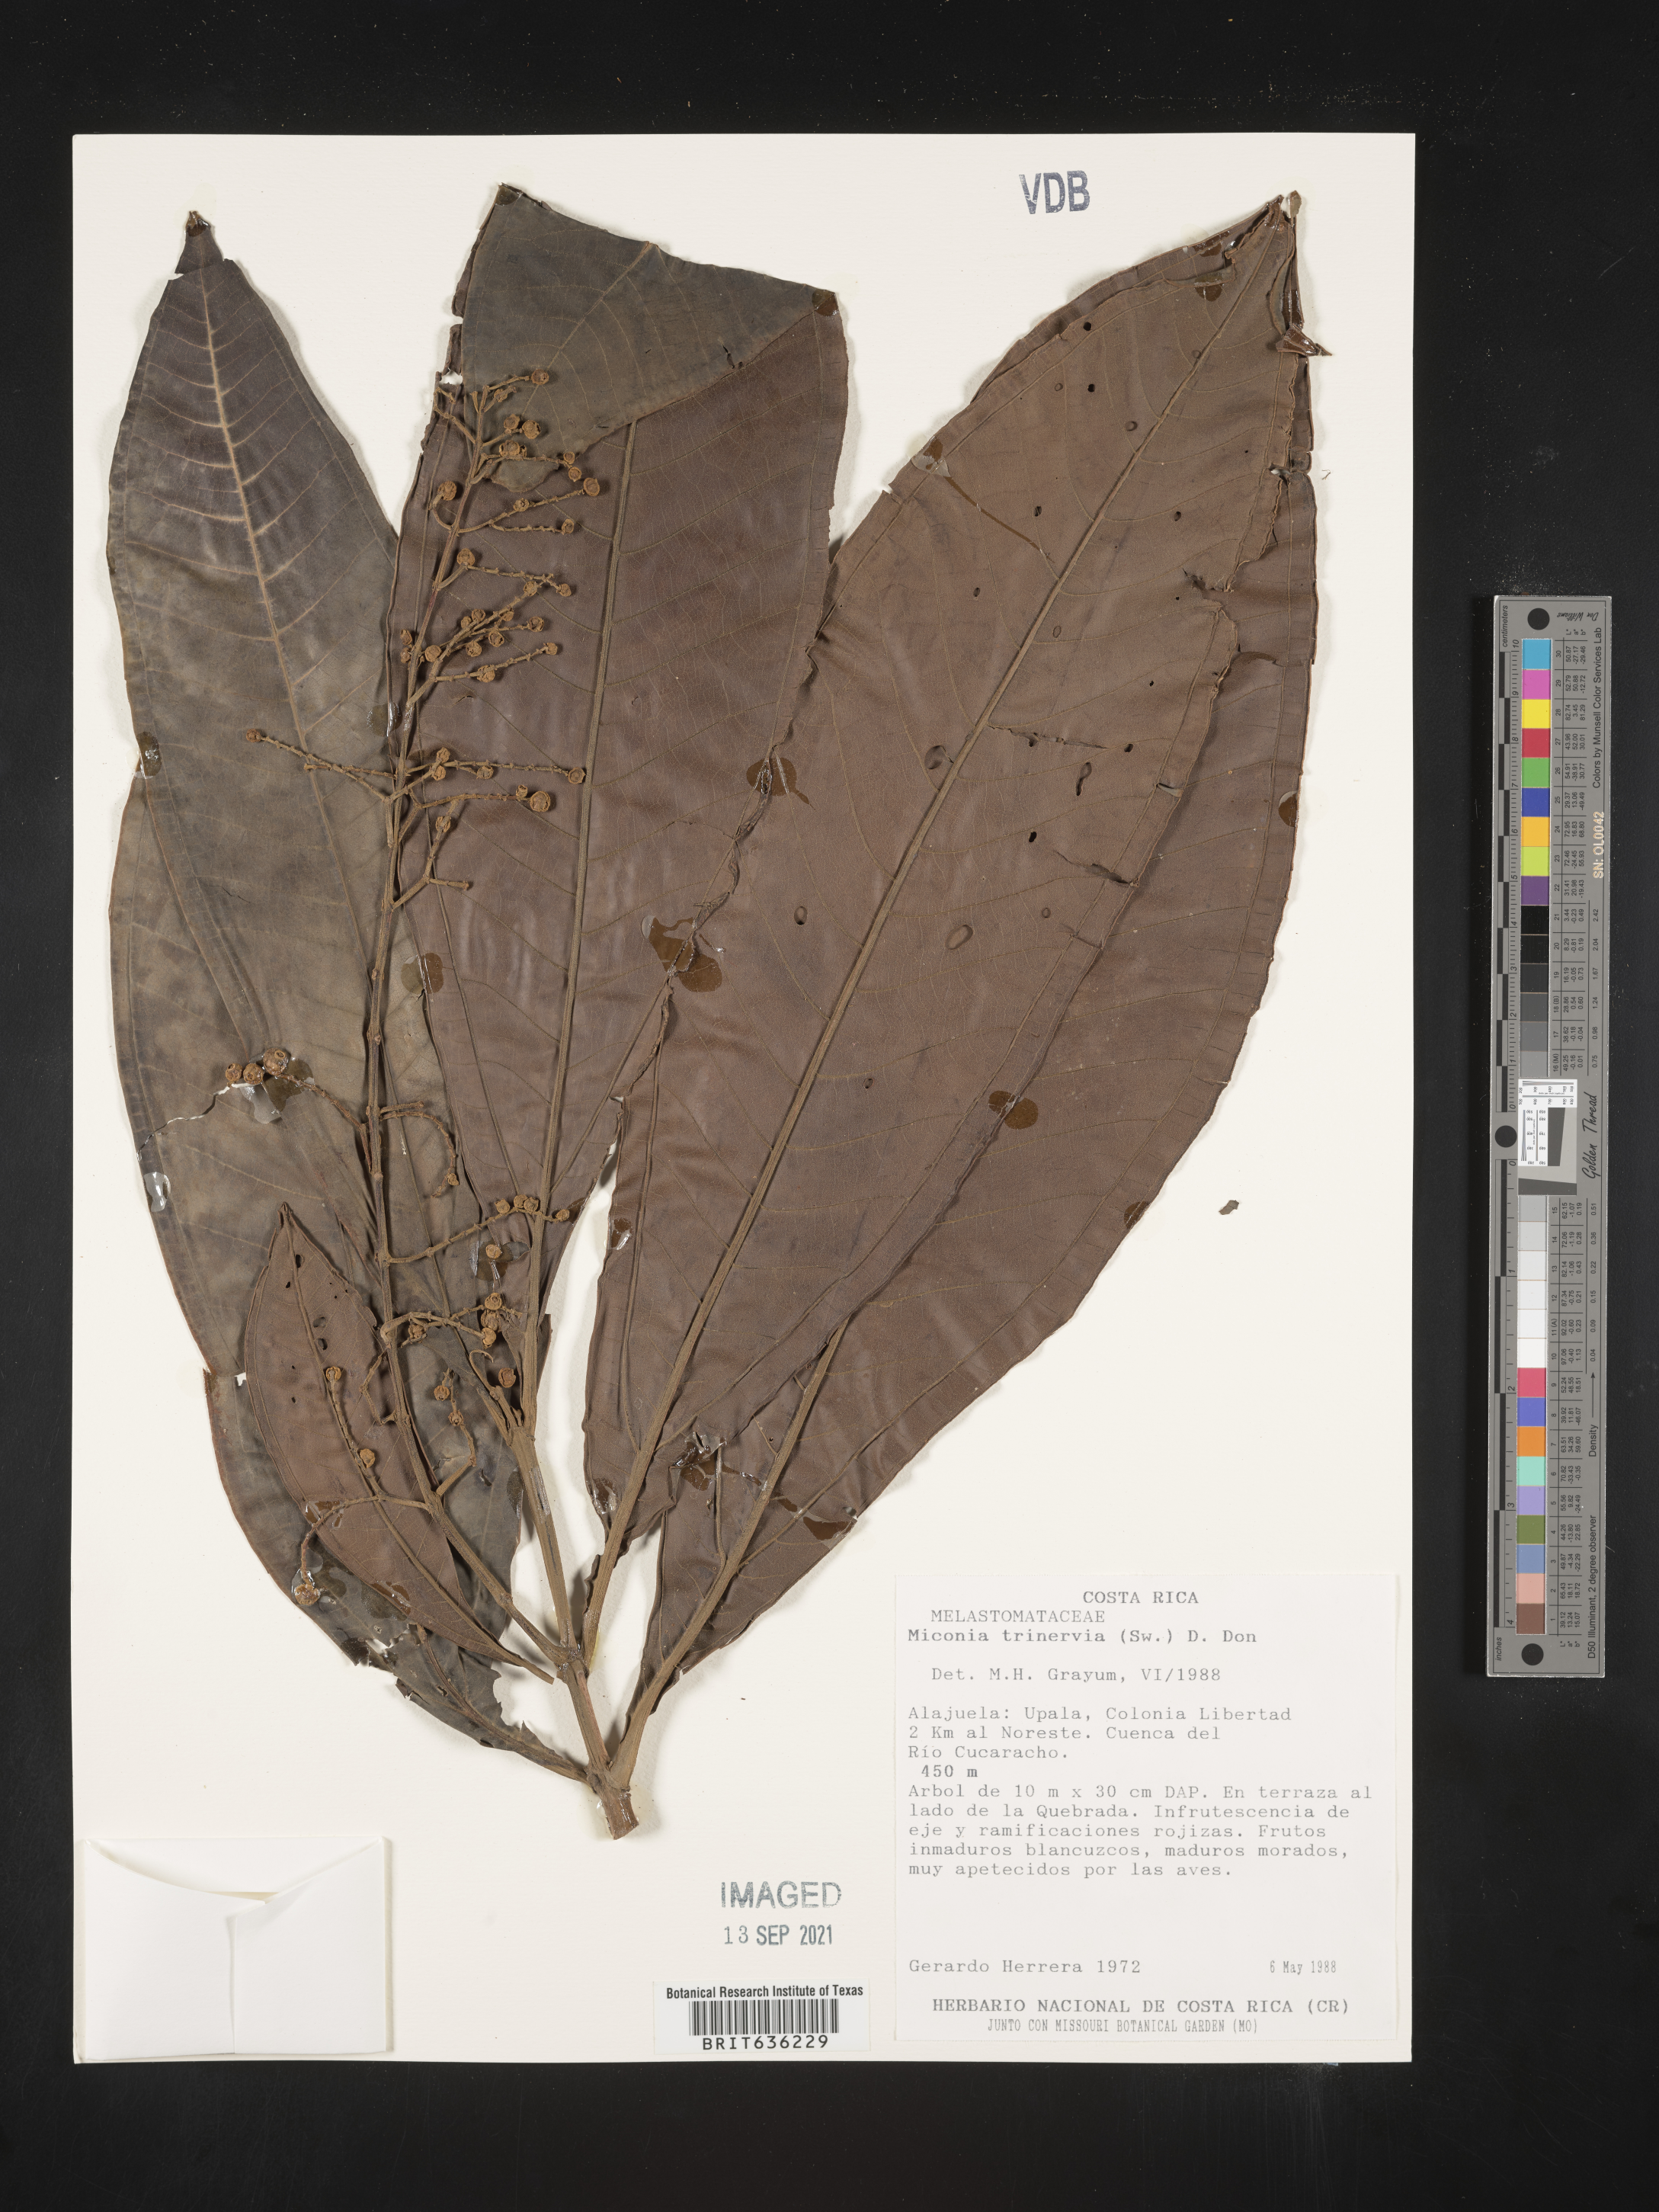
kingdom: Plantae
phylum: Tracheophyta
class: Magnoliopsida
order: Myrtales
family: Melastomataceae
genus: Miconia
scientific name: Miconia
